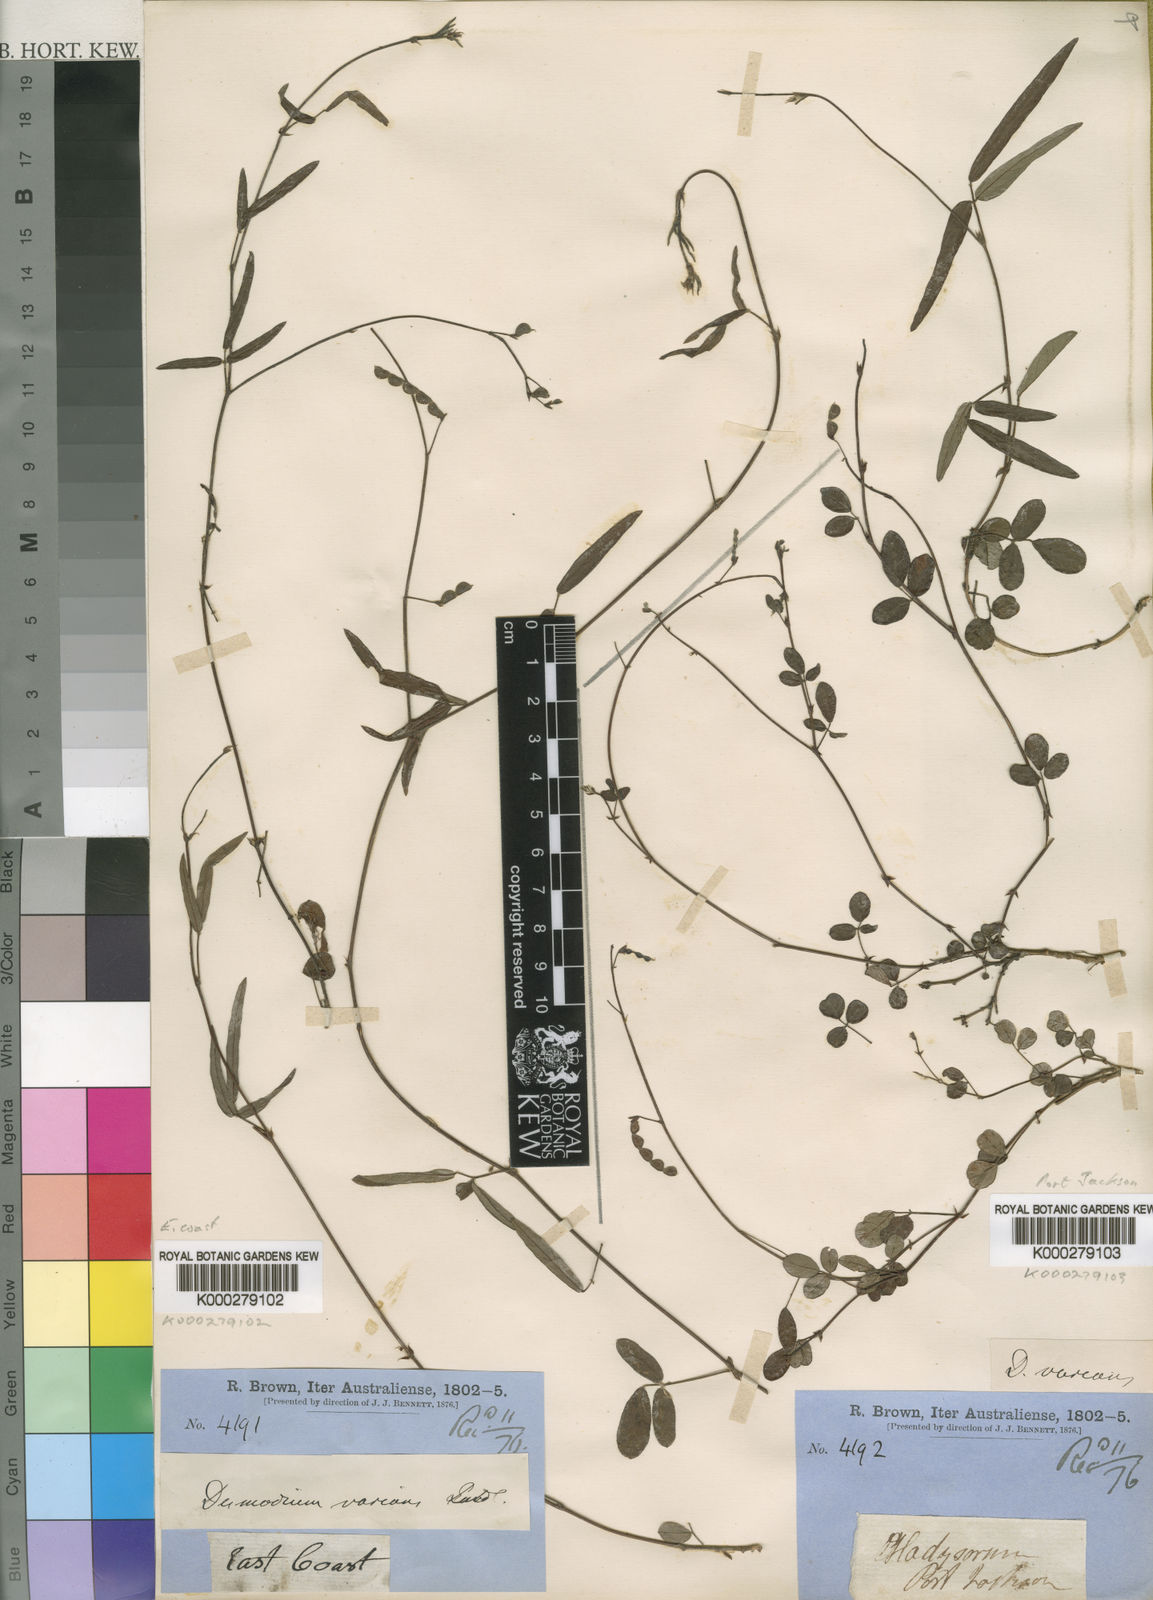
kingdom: Plantae
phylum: Tracheophyta
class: Magnoliopsida
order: Fabales
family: Fabaceae
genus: Grona
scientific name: Grona varians
